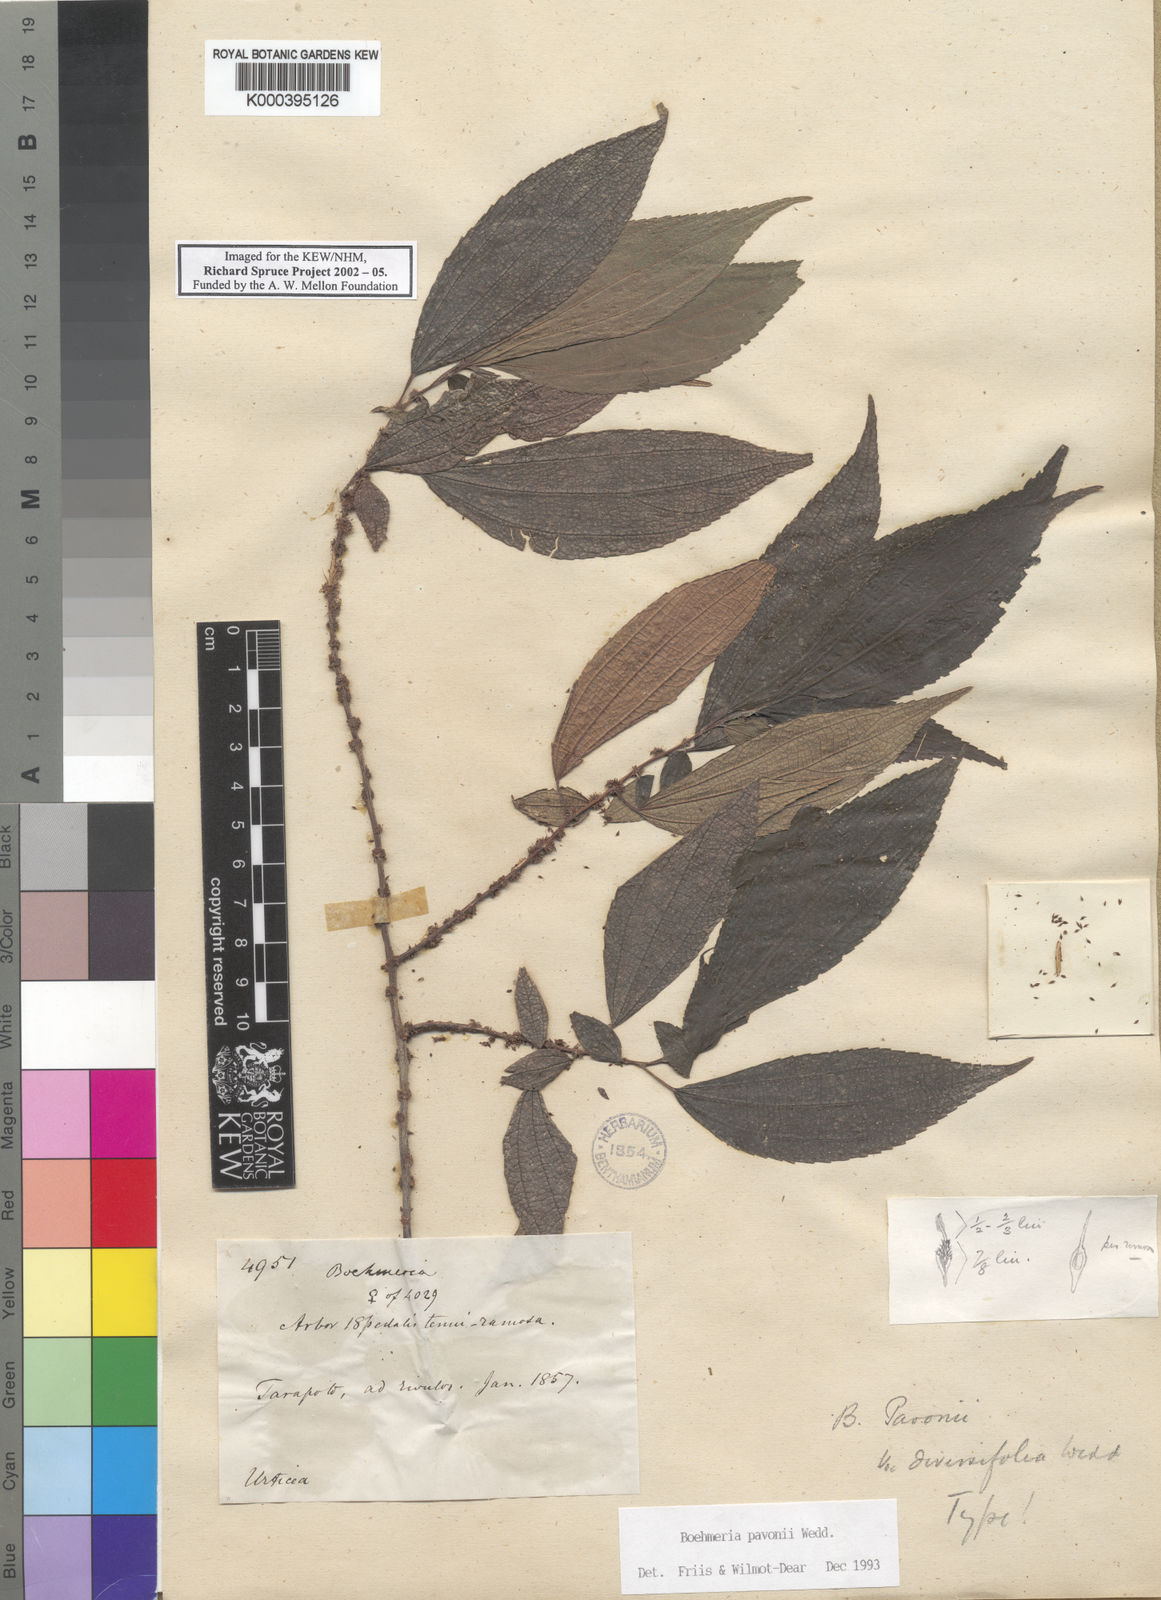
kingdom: Plantae
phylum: Tracheophyta
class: Magnoliopsida
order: Rosales
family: Urticaceae
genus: Boehmeria
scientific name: Boehmeria pavonii
